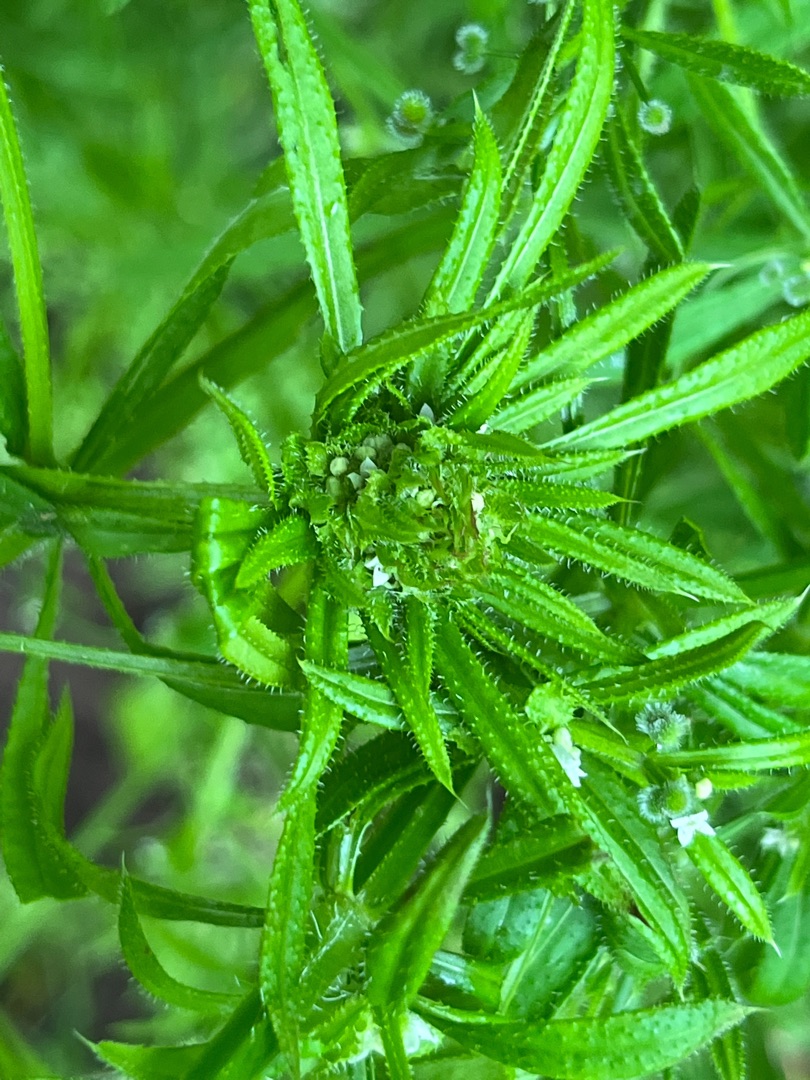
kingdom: Animalia
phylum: Arthropoda
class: Insecta
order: Diptera
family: Cecidomyiidae
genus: Dasineura
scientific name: Dasineura aparines
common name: Burresnerregalmyg
